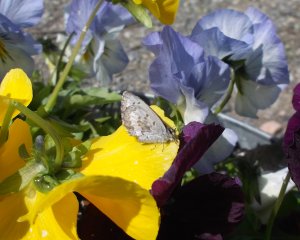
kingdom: Animalia
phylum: Arthropoda
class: Insecta
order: Lepidoptera
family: Lycaenidae
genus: Celastrina
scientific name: Celastrina
